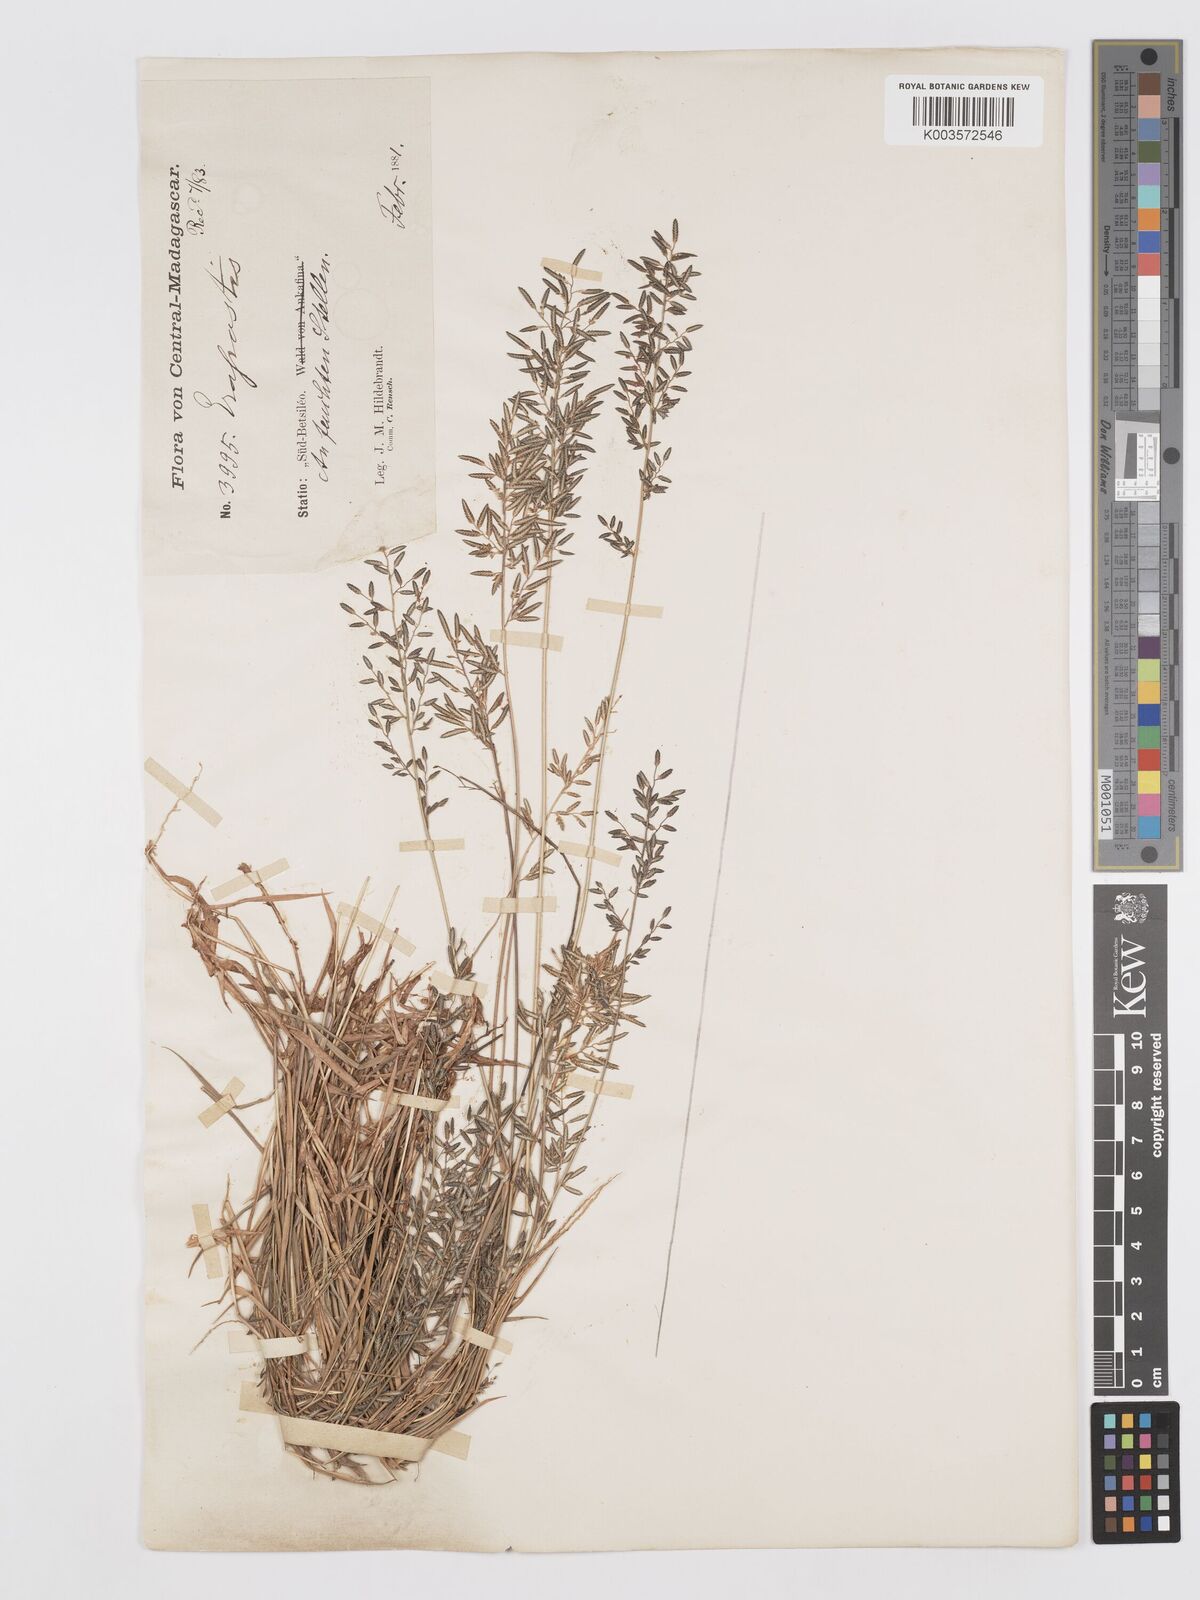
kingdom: Plantae
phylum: Tracheophyta
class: Liliopsida
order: Poales
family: Poaceae
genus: Eragrostis
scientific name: Eragrostis lateritica
